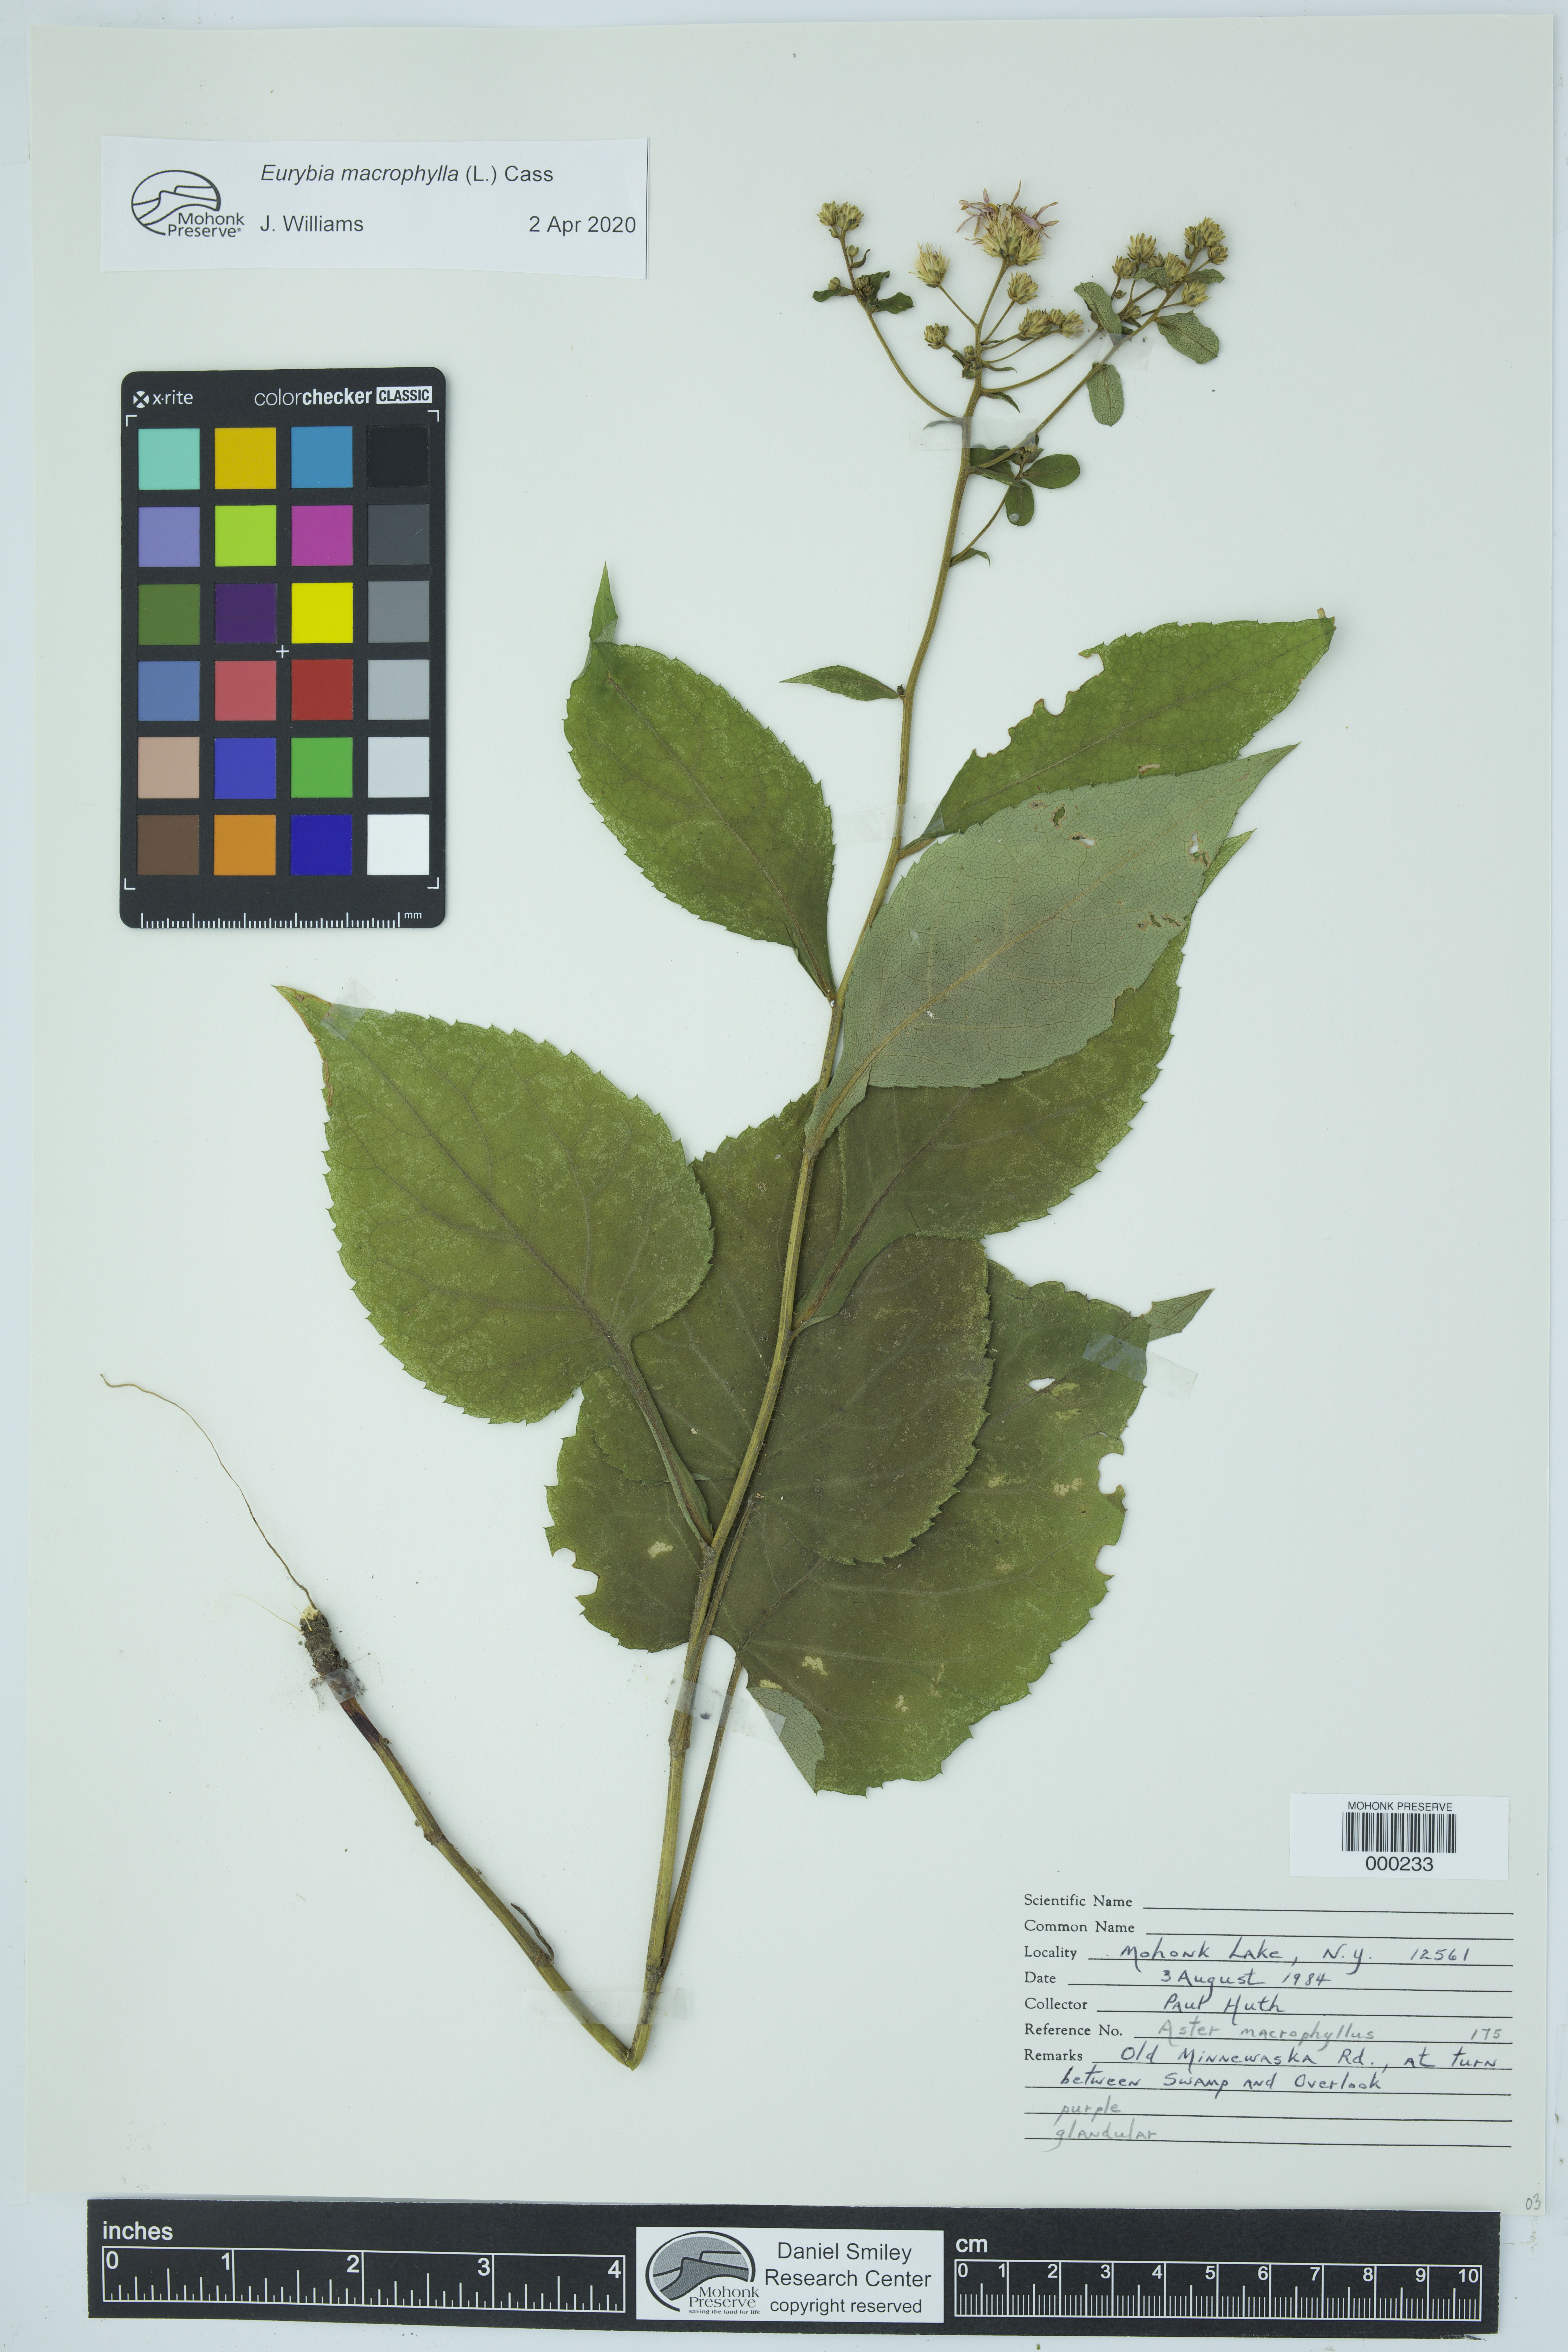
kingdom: Plantae
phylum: Tracheophyta
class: Magnoliopsida
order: Asterales
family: Asteraceae
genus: Eurybia
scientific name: Eurybia macrophylla
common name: Big-leaved aster
